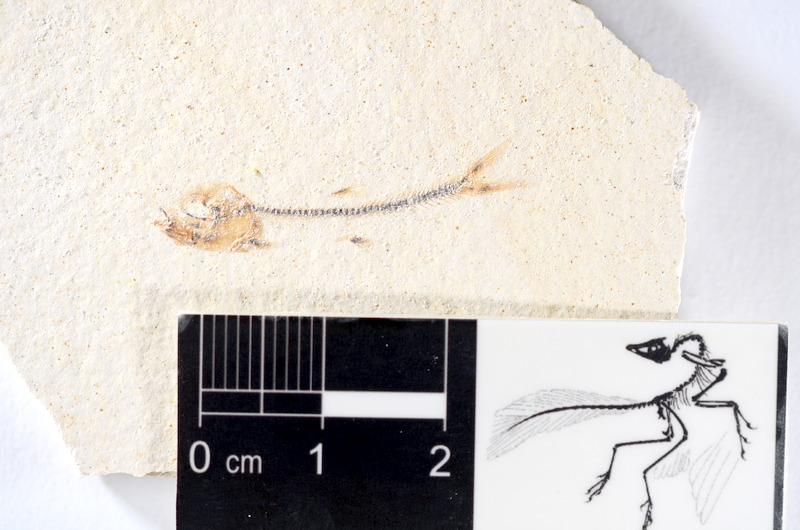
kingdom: Animalia
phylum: Chordata
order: Salmoniformes
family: Orthogonikleithridae
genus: Orthogonikleithrus
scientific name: Orthogonikleithrus hoelli
